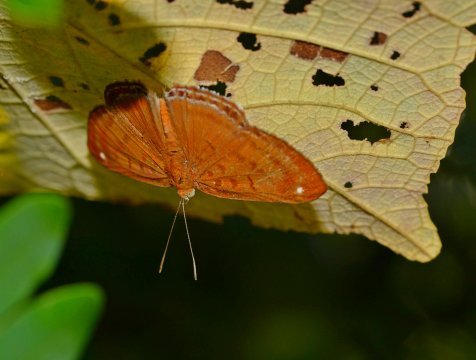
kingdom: Animalia
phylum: Arthropoda
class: Insecta
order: Lepidoptera
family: Riodinidae
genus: Synargis
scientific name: Synargis mycone
